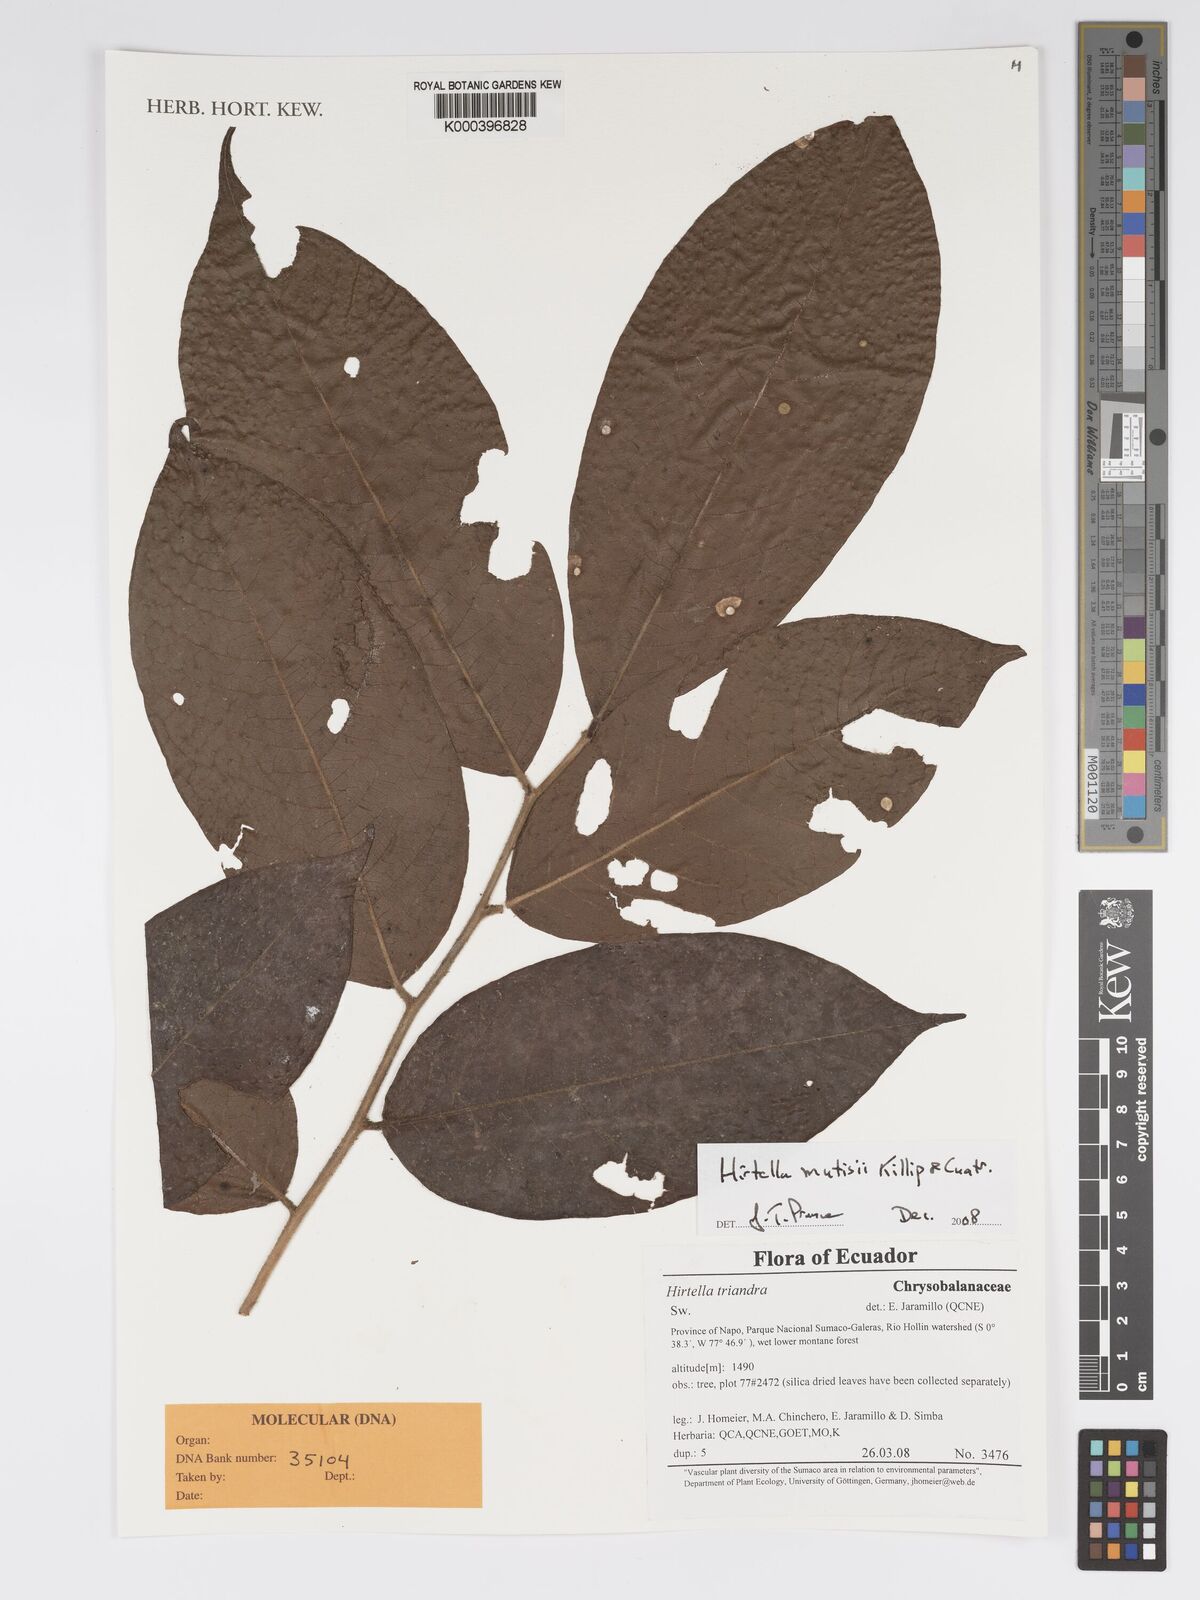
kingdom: Plantae
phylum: Tracheophyta
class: Magnoliopsida
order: Malpighiales
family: Chrysobalanaceae
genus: Hirtella
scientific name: Hirtella mutisii
